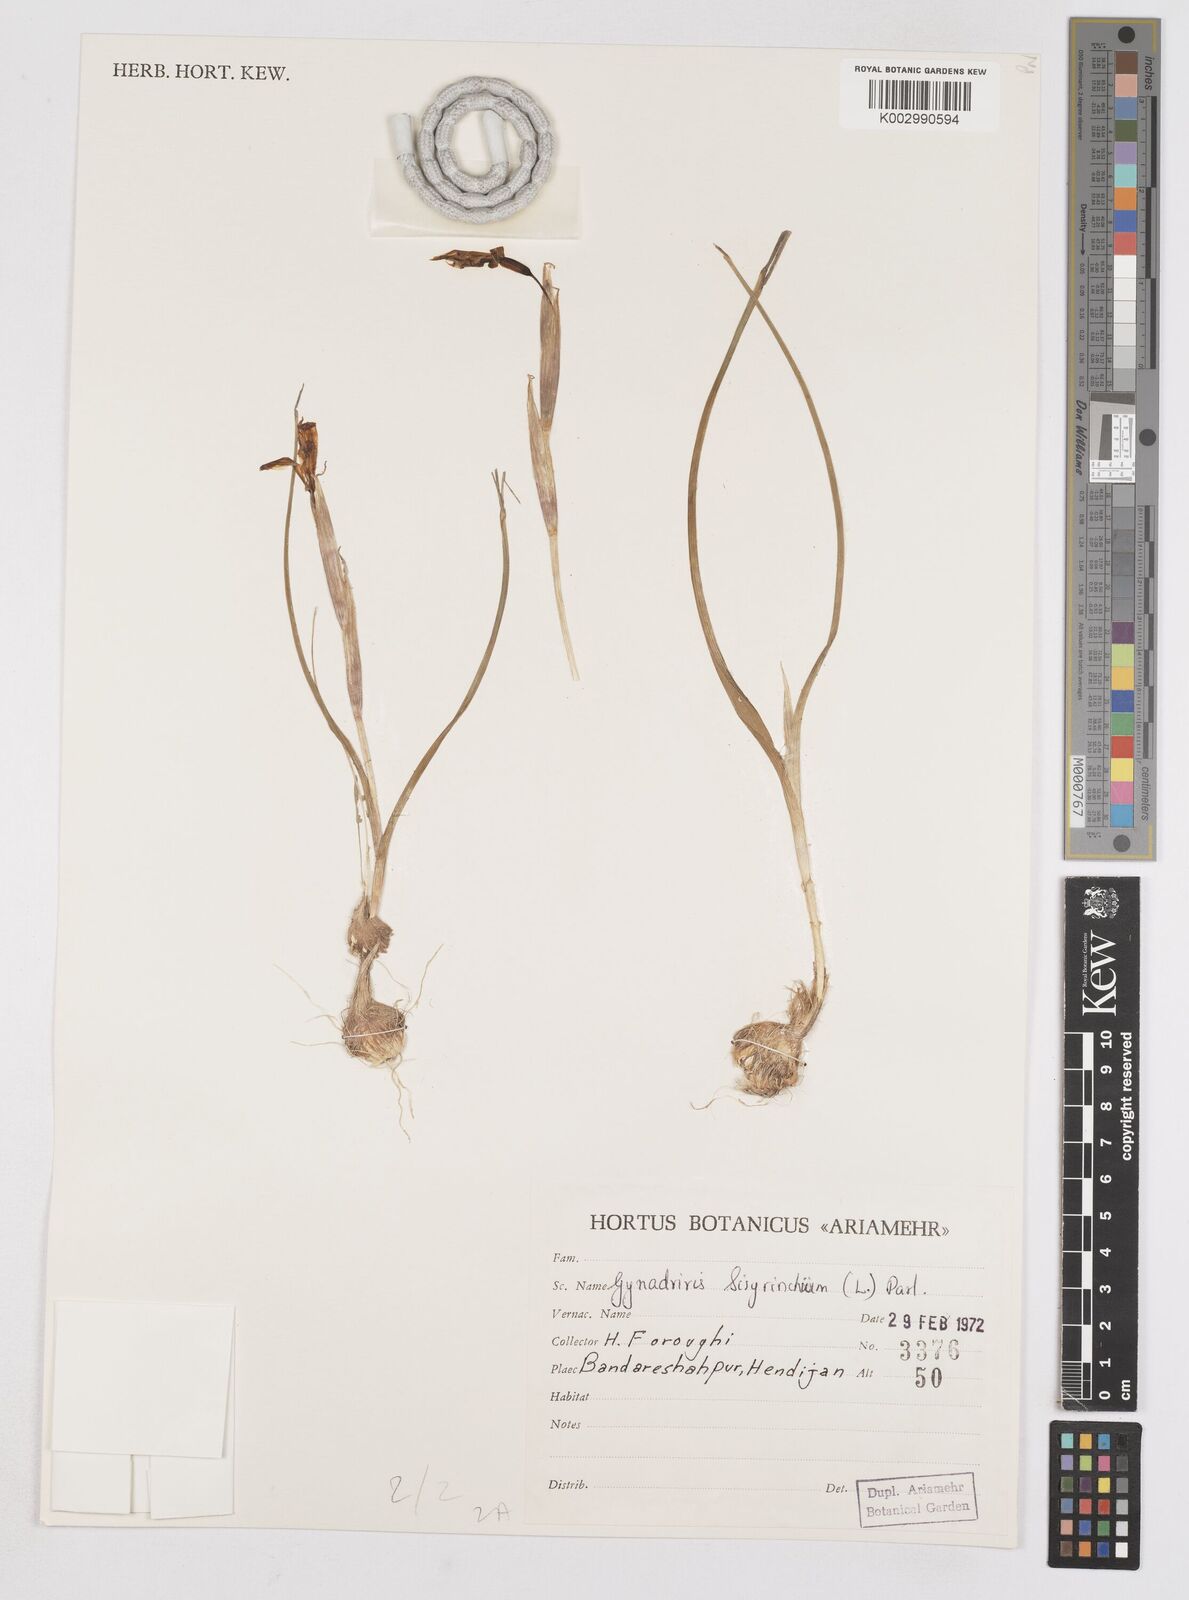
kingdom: Plantae
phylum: Tracheophyta
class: Liliopsida
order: Asparagales
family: Iridaceae
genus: Moraea
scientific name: Moraea sisyrinchium
